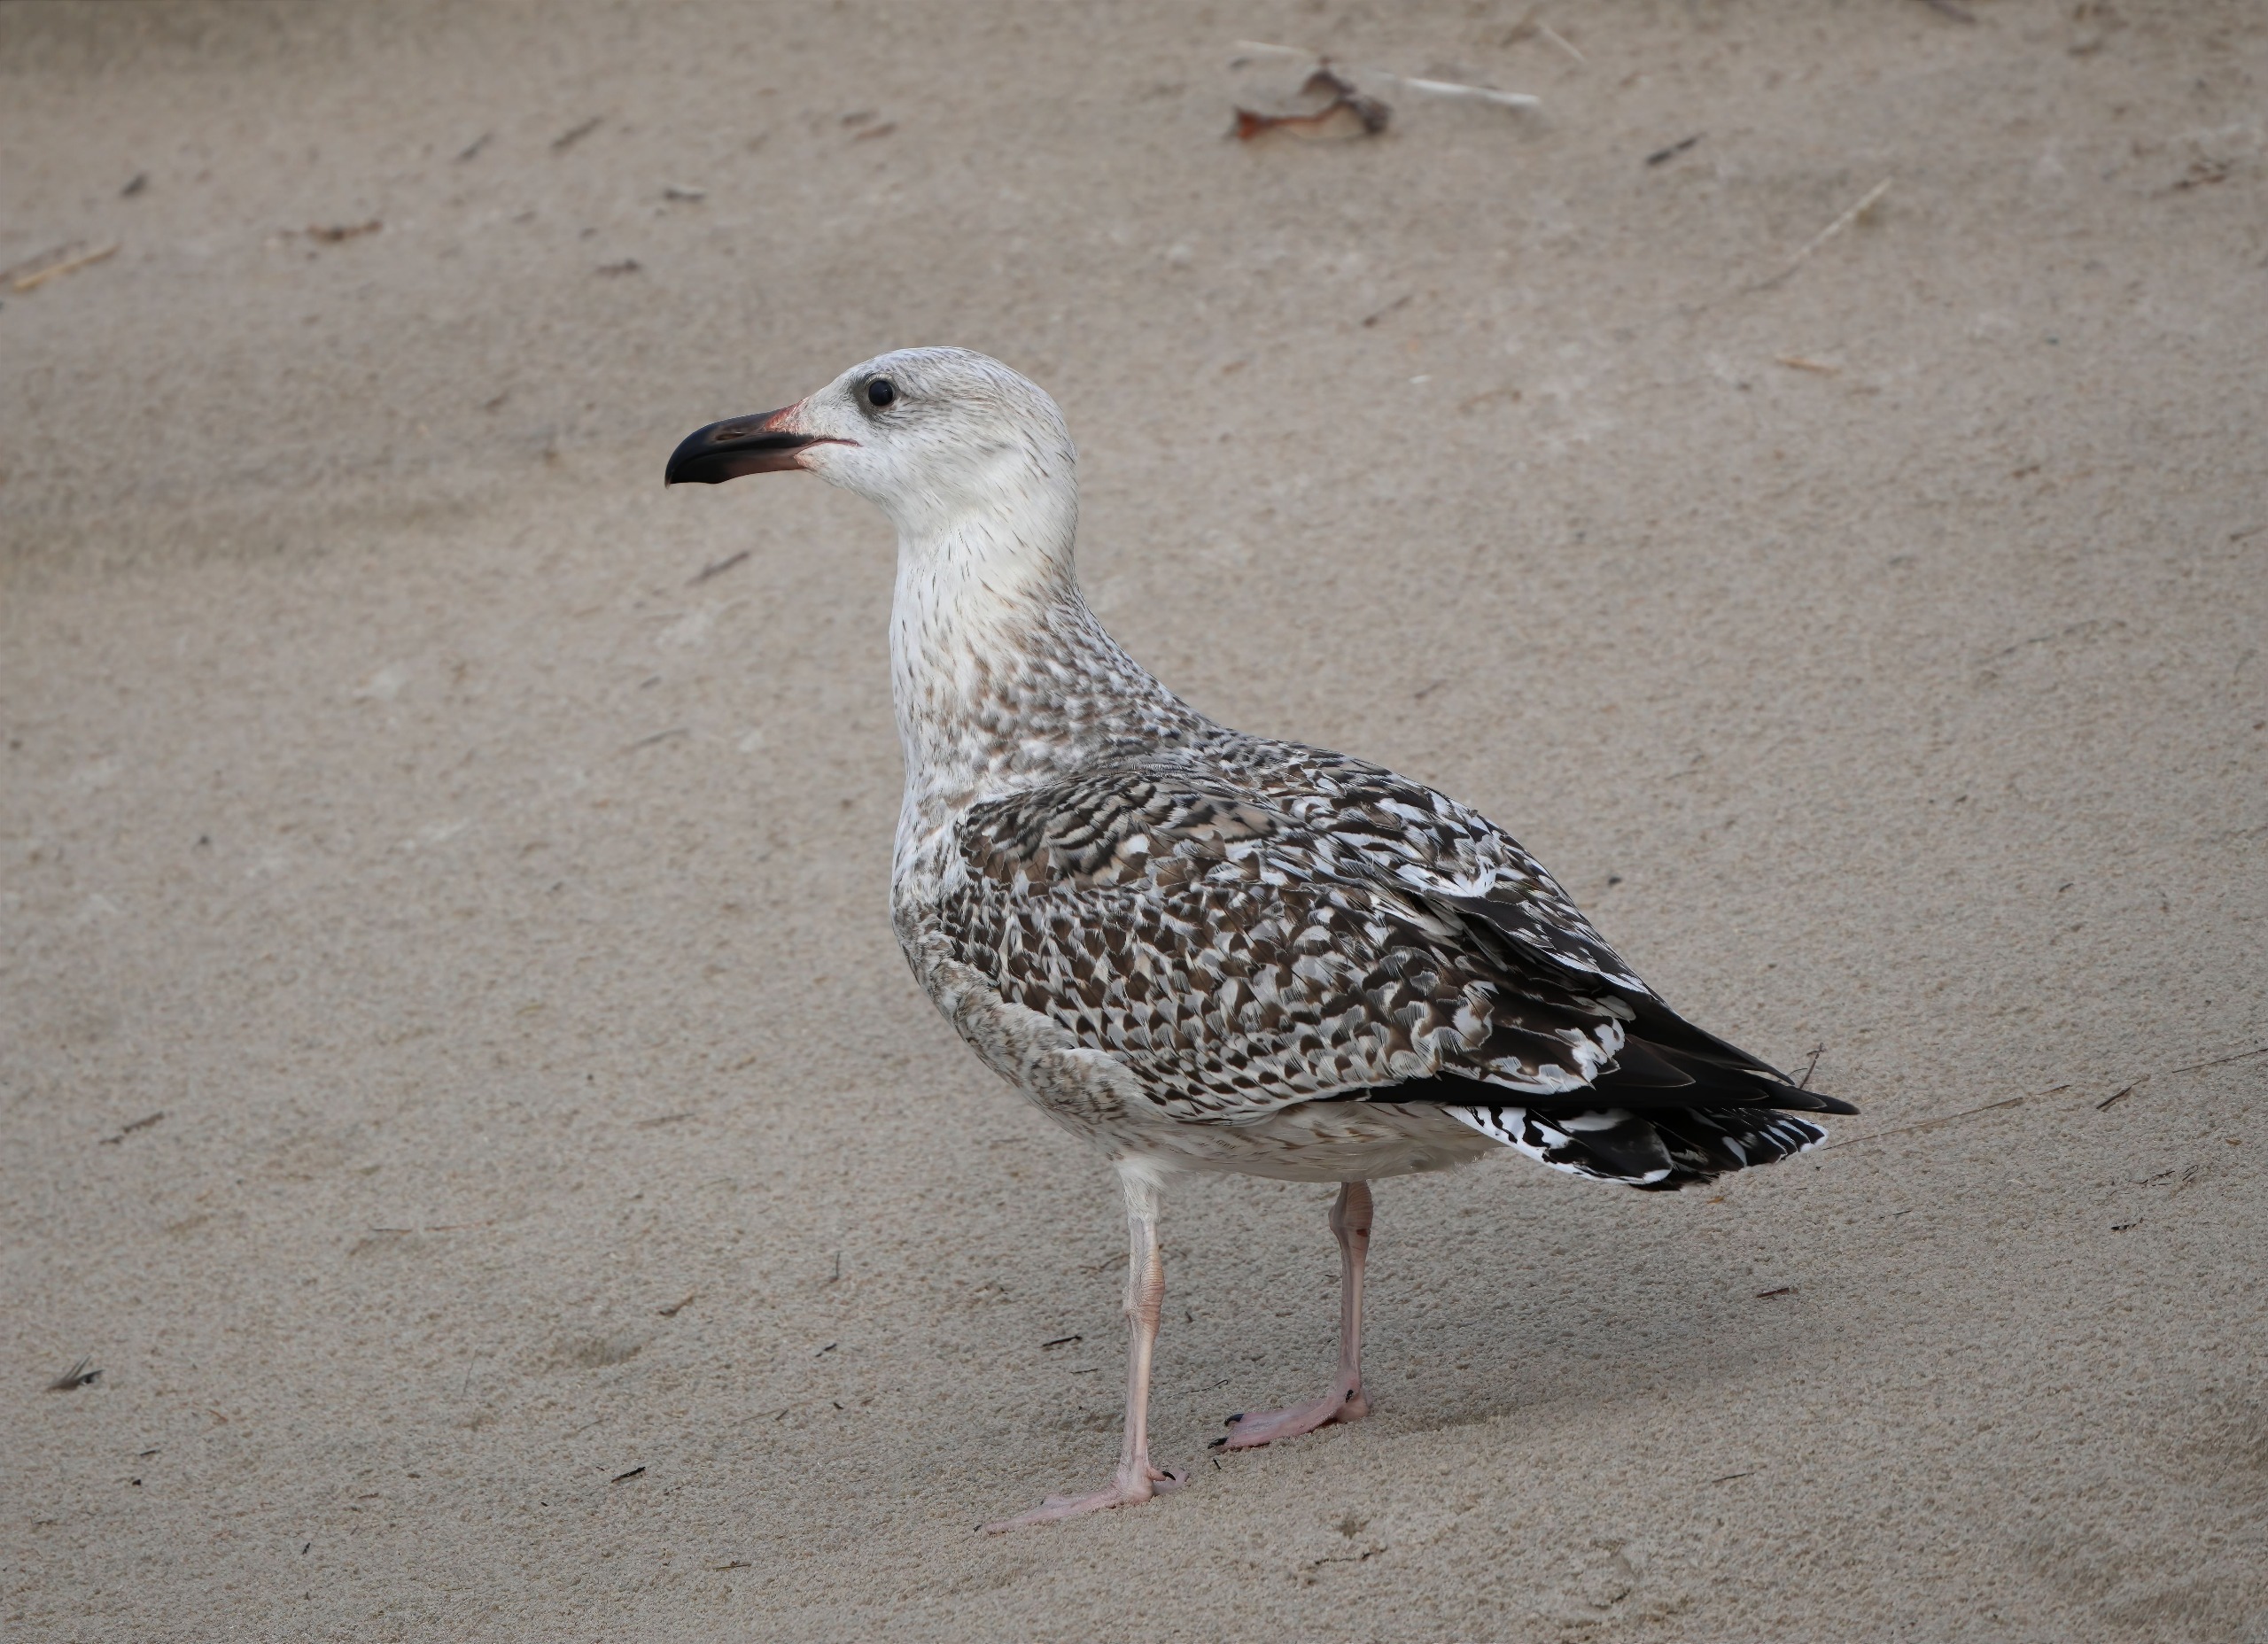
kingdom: Animalia
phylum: Chordata
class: Aves
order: Charadriiformes
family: Laridae
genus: Larus
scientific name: Larus marinus
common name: Svartbag
